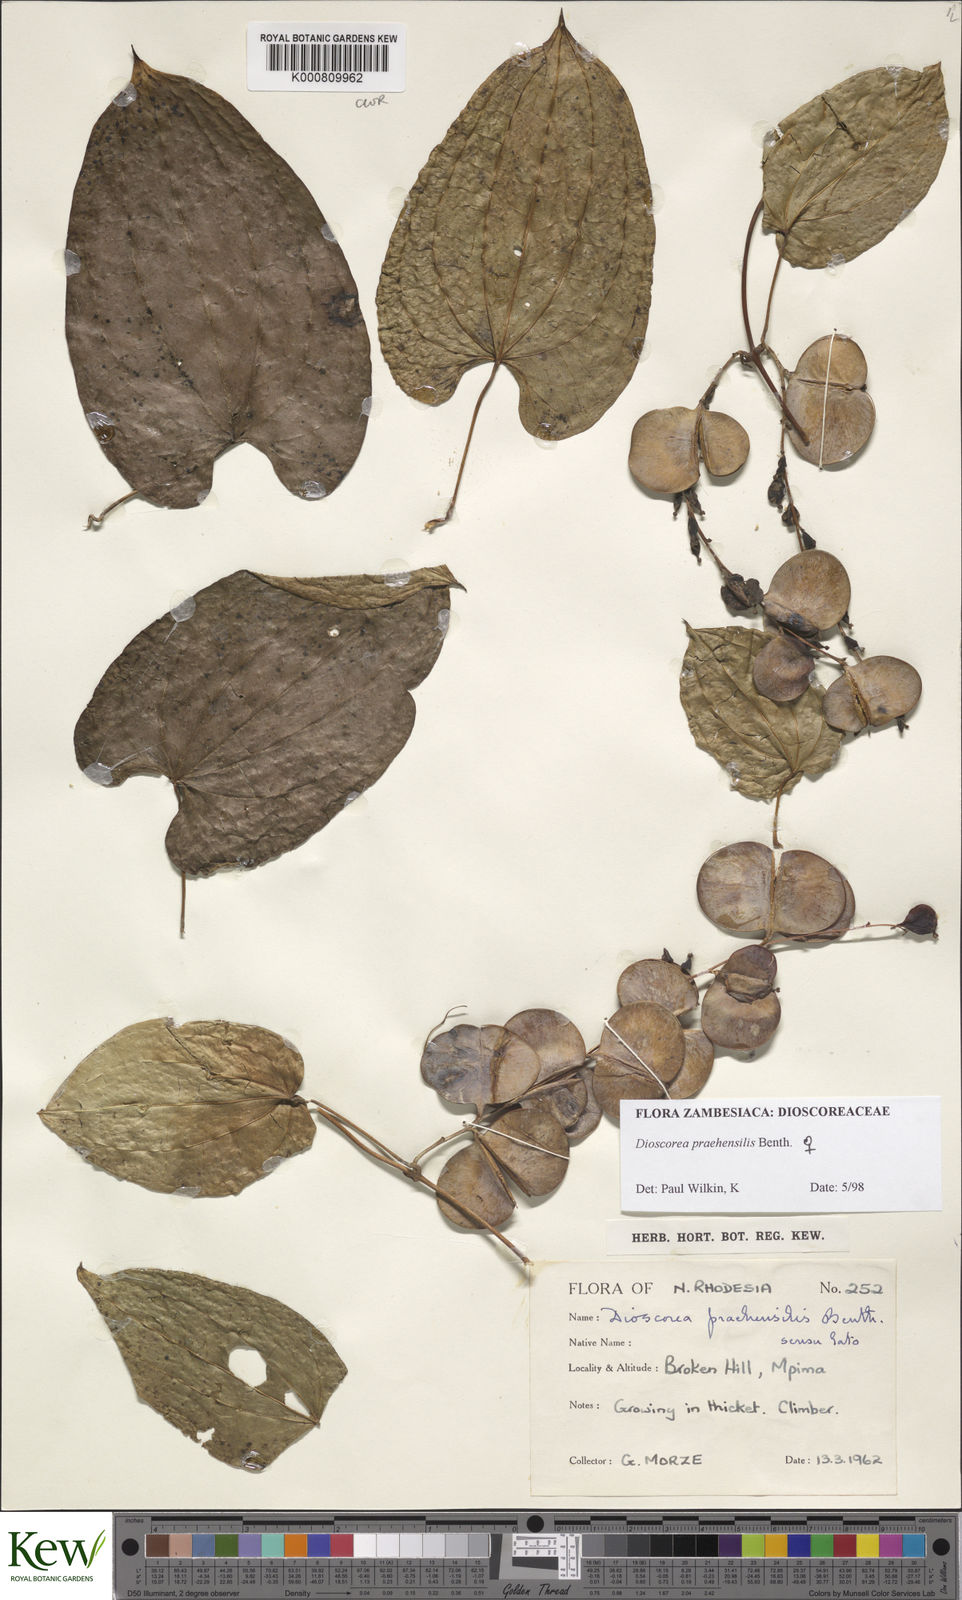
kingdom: Plantae
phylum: Tracheophyta
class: Liliopsida
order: Dioscoreales
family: Dioscoreaceae
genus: Dioscorea
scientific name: Dioscorea praehensilis
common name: Bush yam
